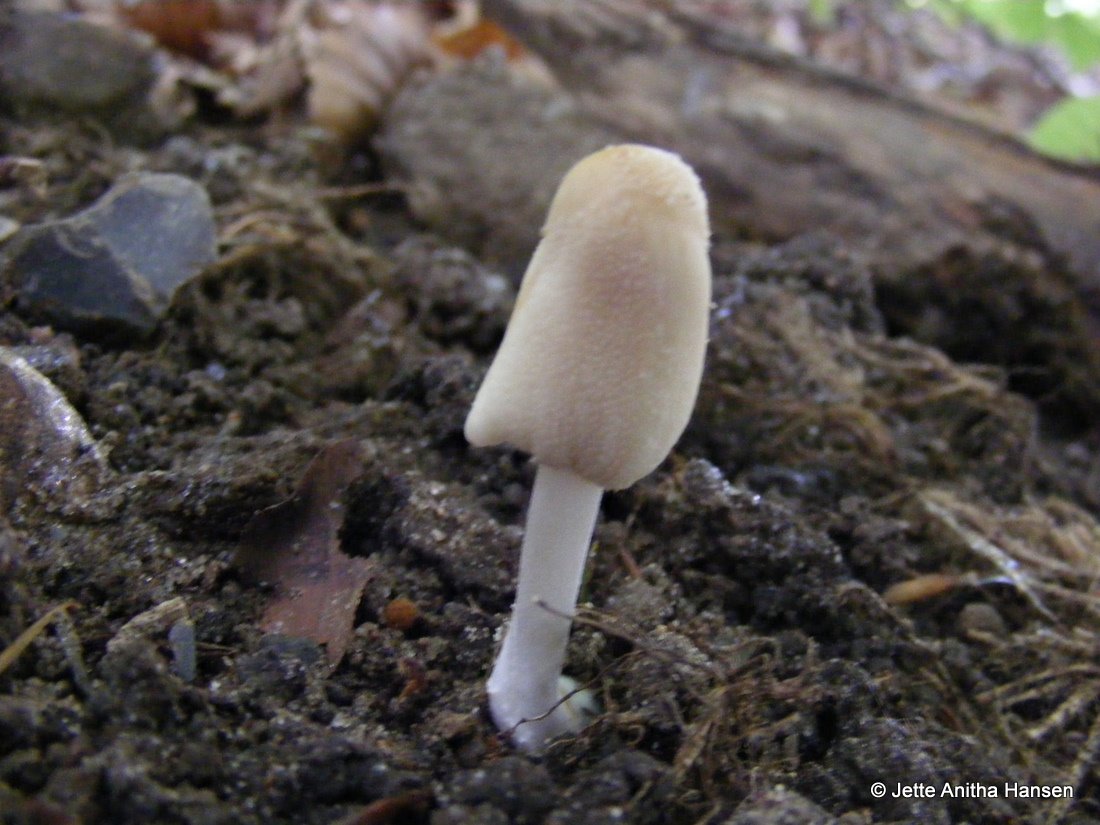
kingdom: Fungi
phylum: Basidiomycota
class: Agaricomycetes
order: Agaricales
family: Psathyrellaceae
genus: Coprinellus
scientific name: Coprinellus domesticus
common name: hus-blækhat
